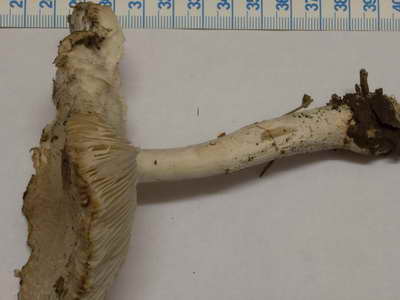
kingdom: Fungi
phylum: Basidiomycota
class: Agaricomycetes
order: Agaricales
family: Agaricaceae
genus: Lepiota
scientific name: Lepiota ignivolvata
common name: orangefodet parasolhat
